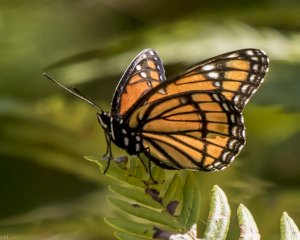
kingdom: Animalia
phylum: Arthropoda
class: Insecta
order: Lepidoptera
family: Nymphalidae
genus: Limenitis
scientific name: Limenitis archippus
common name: Viceroy
